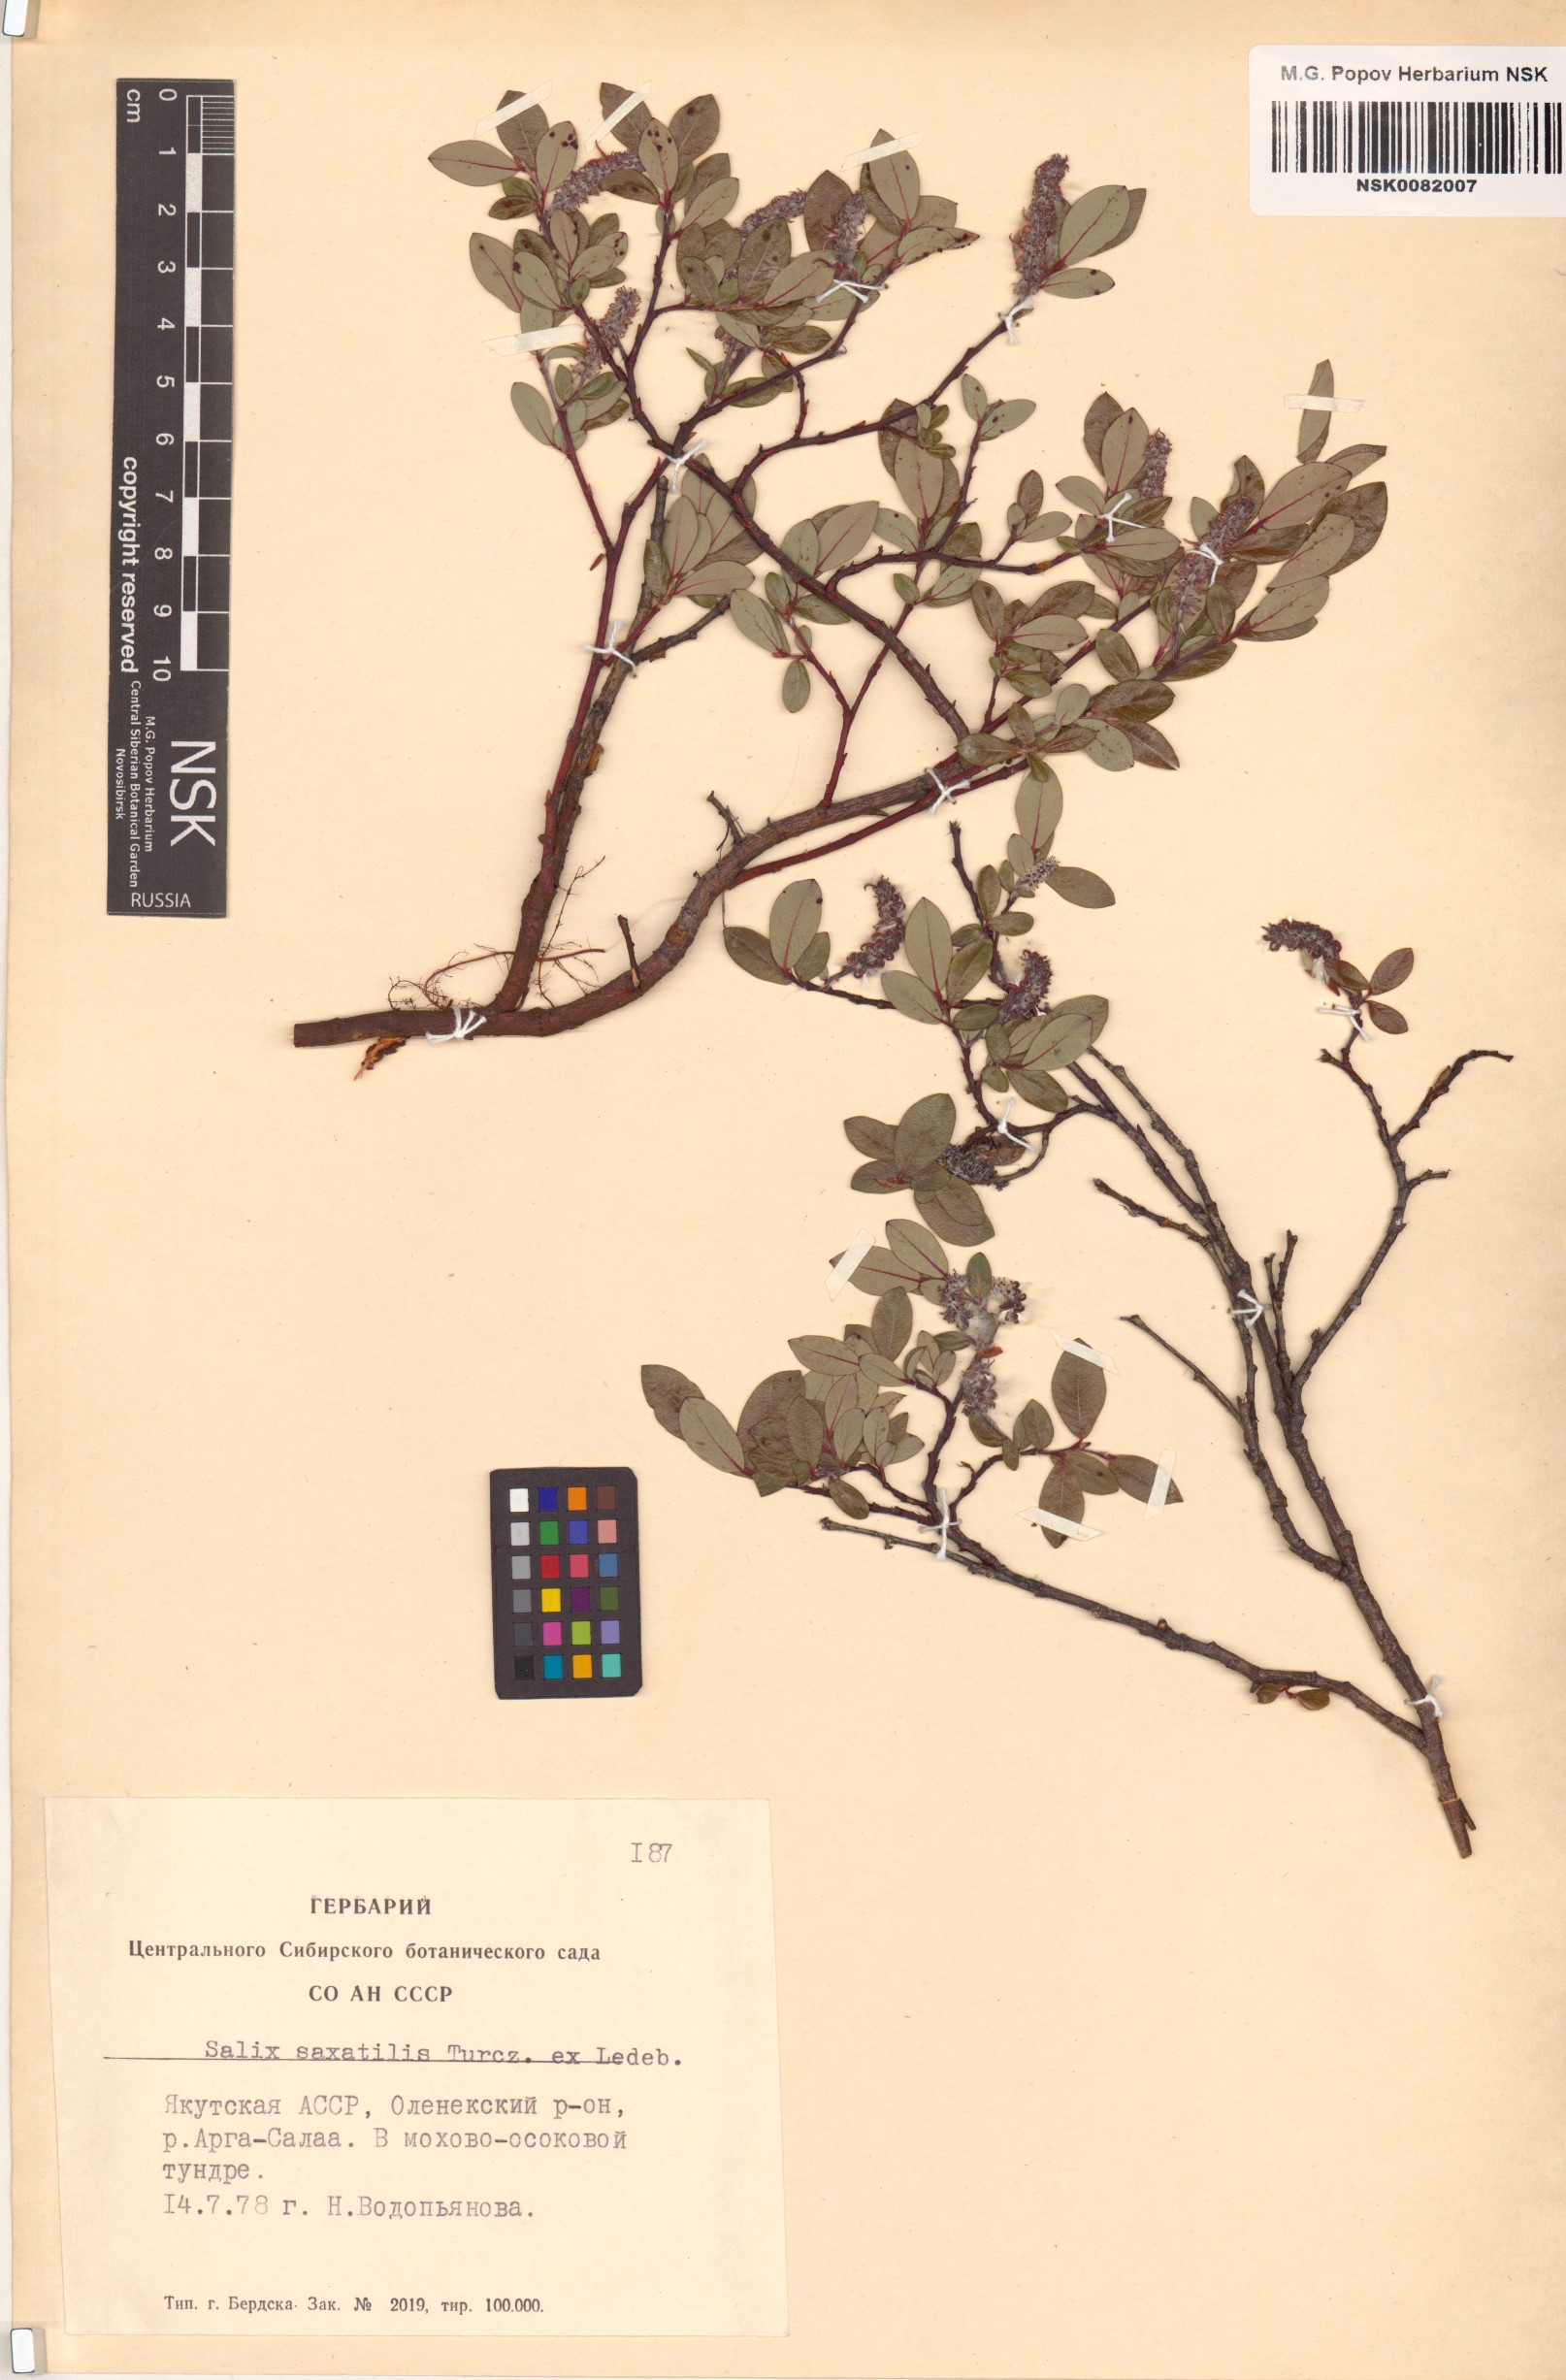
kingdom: Plantae
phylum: Tracheophyta
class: Magnoliopsida
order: Malpighiales
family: Salicaceae
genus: Salix
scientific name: Salix saxatilis
